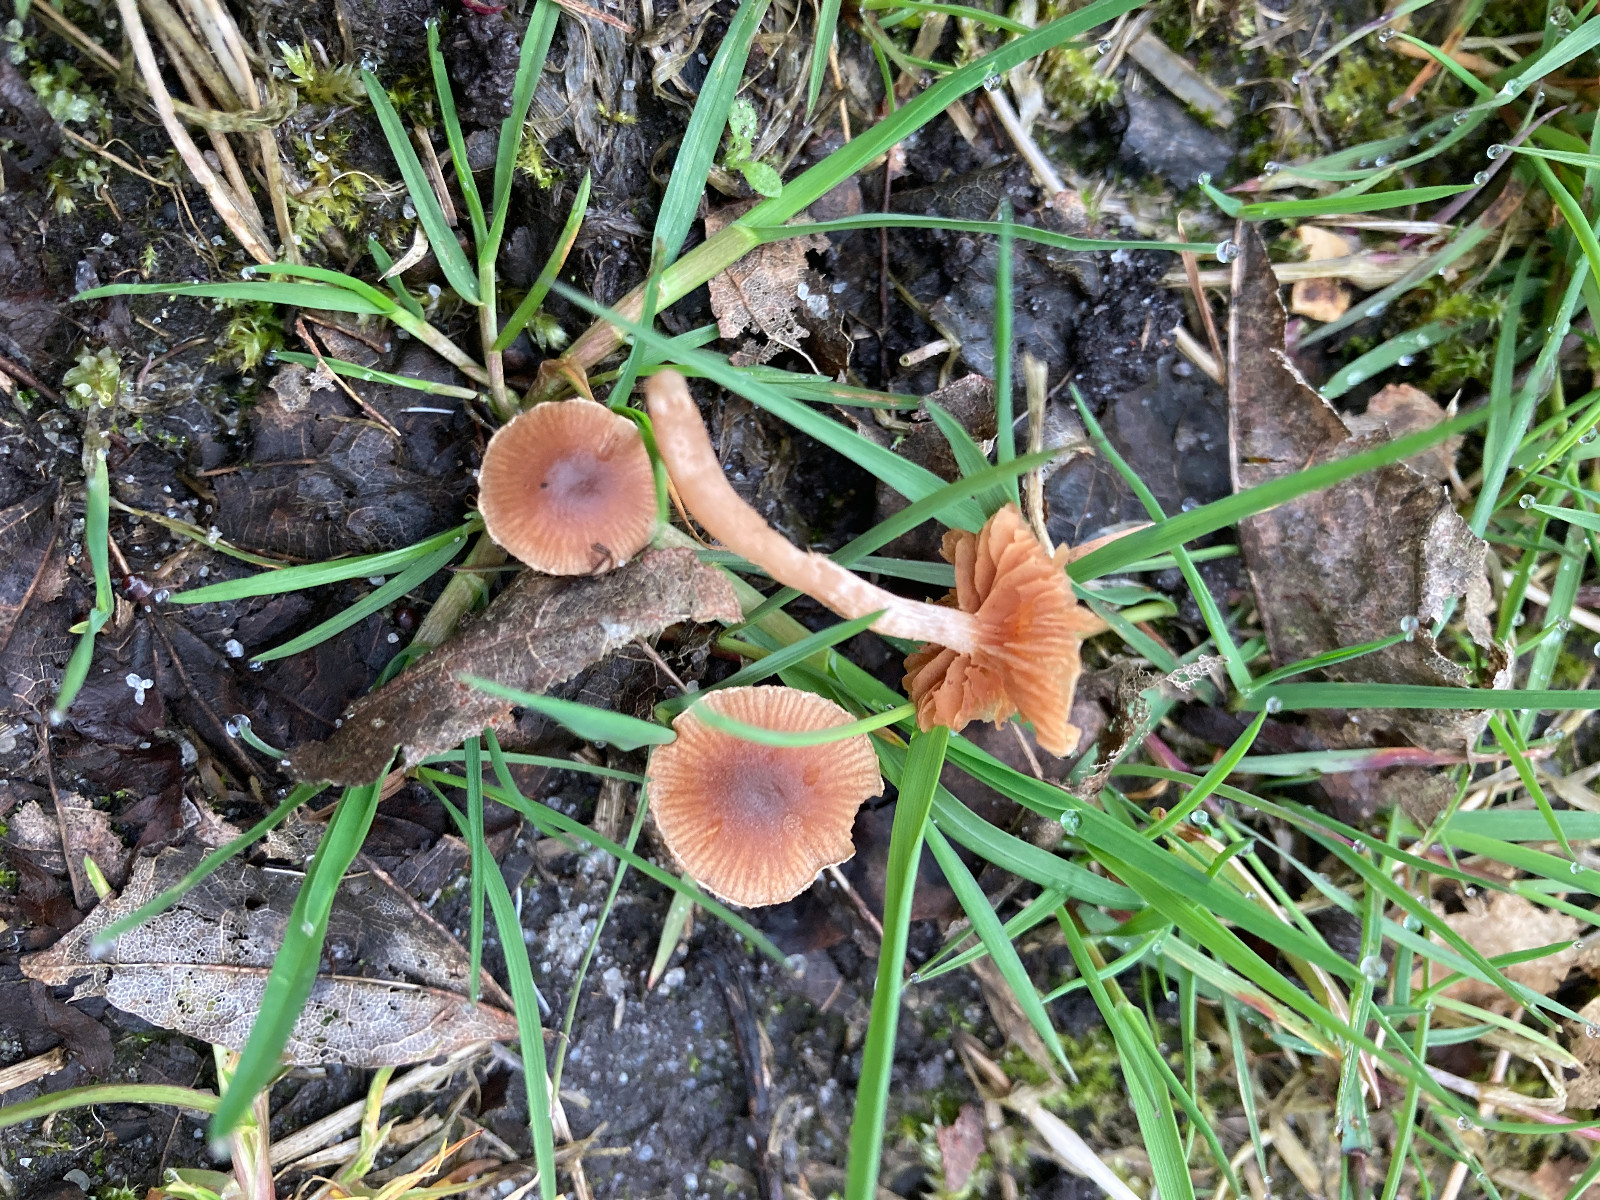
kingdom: Fungi
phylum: Basidiomycota
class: Agaricomycetes
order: Agaricales
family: Tubariaceae
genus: Tubaria
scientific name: Tubaria furfuracea
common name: kliddet fnughat
